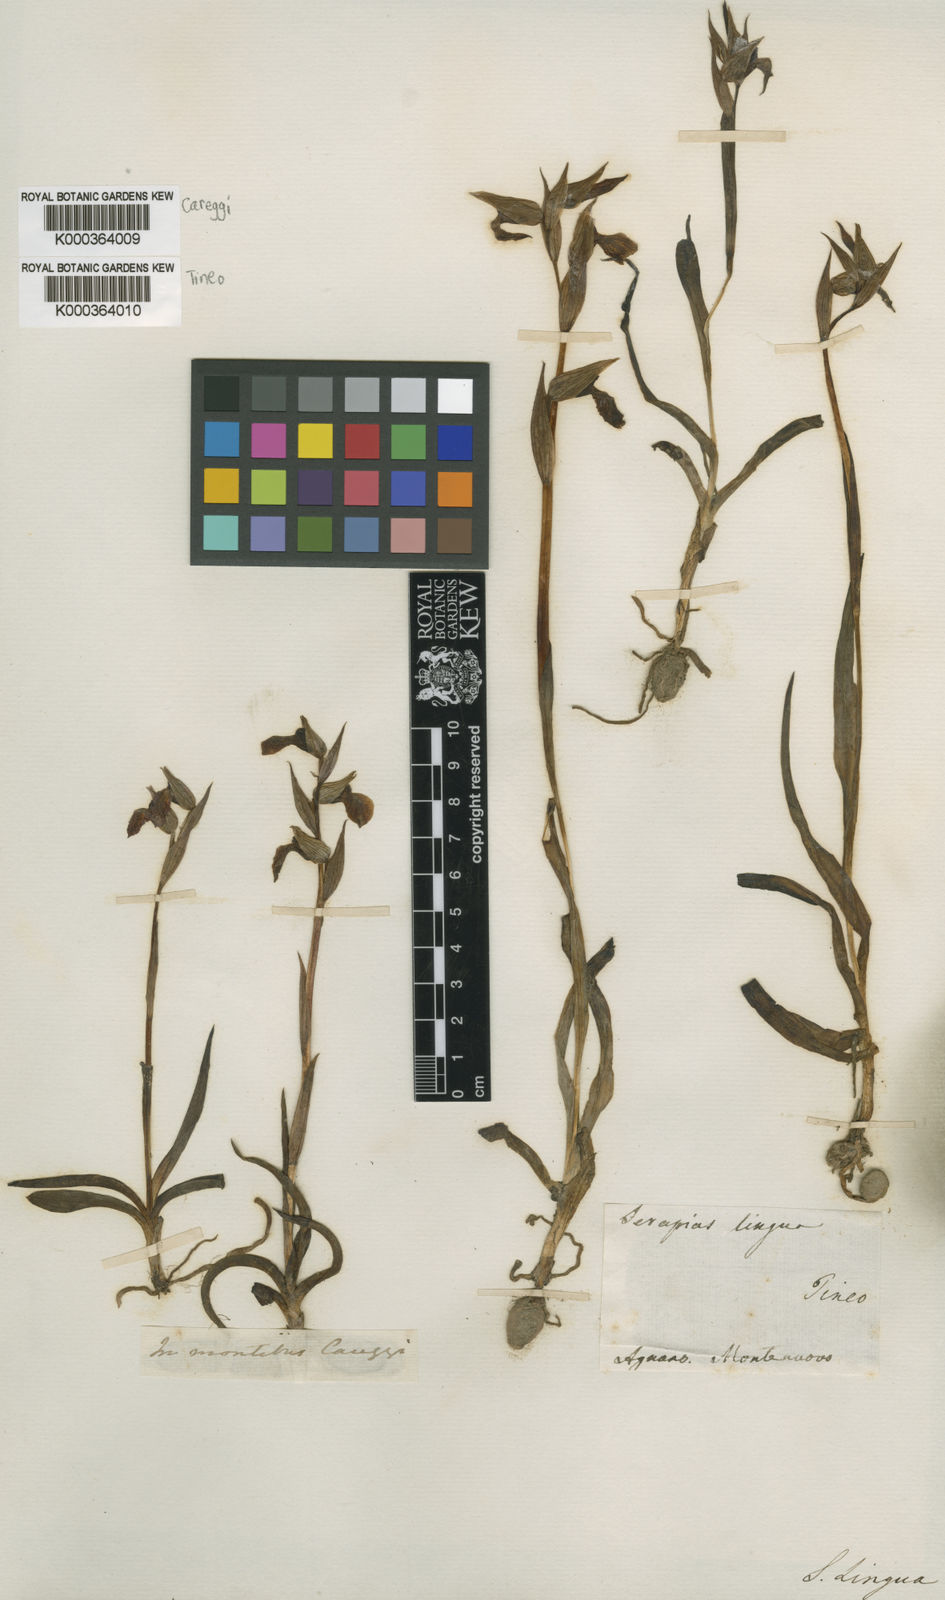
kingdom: Plantae
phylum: Tracheophyta
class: Liliopsida
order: Asparagales
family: Orchidaceae
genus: Serapias
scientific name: Serapias lingua
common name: Tongue-orchid
